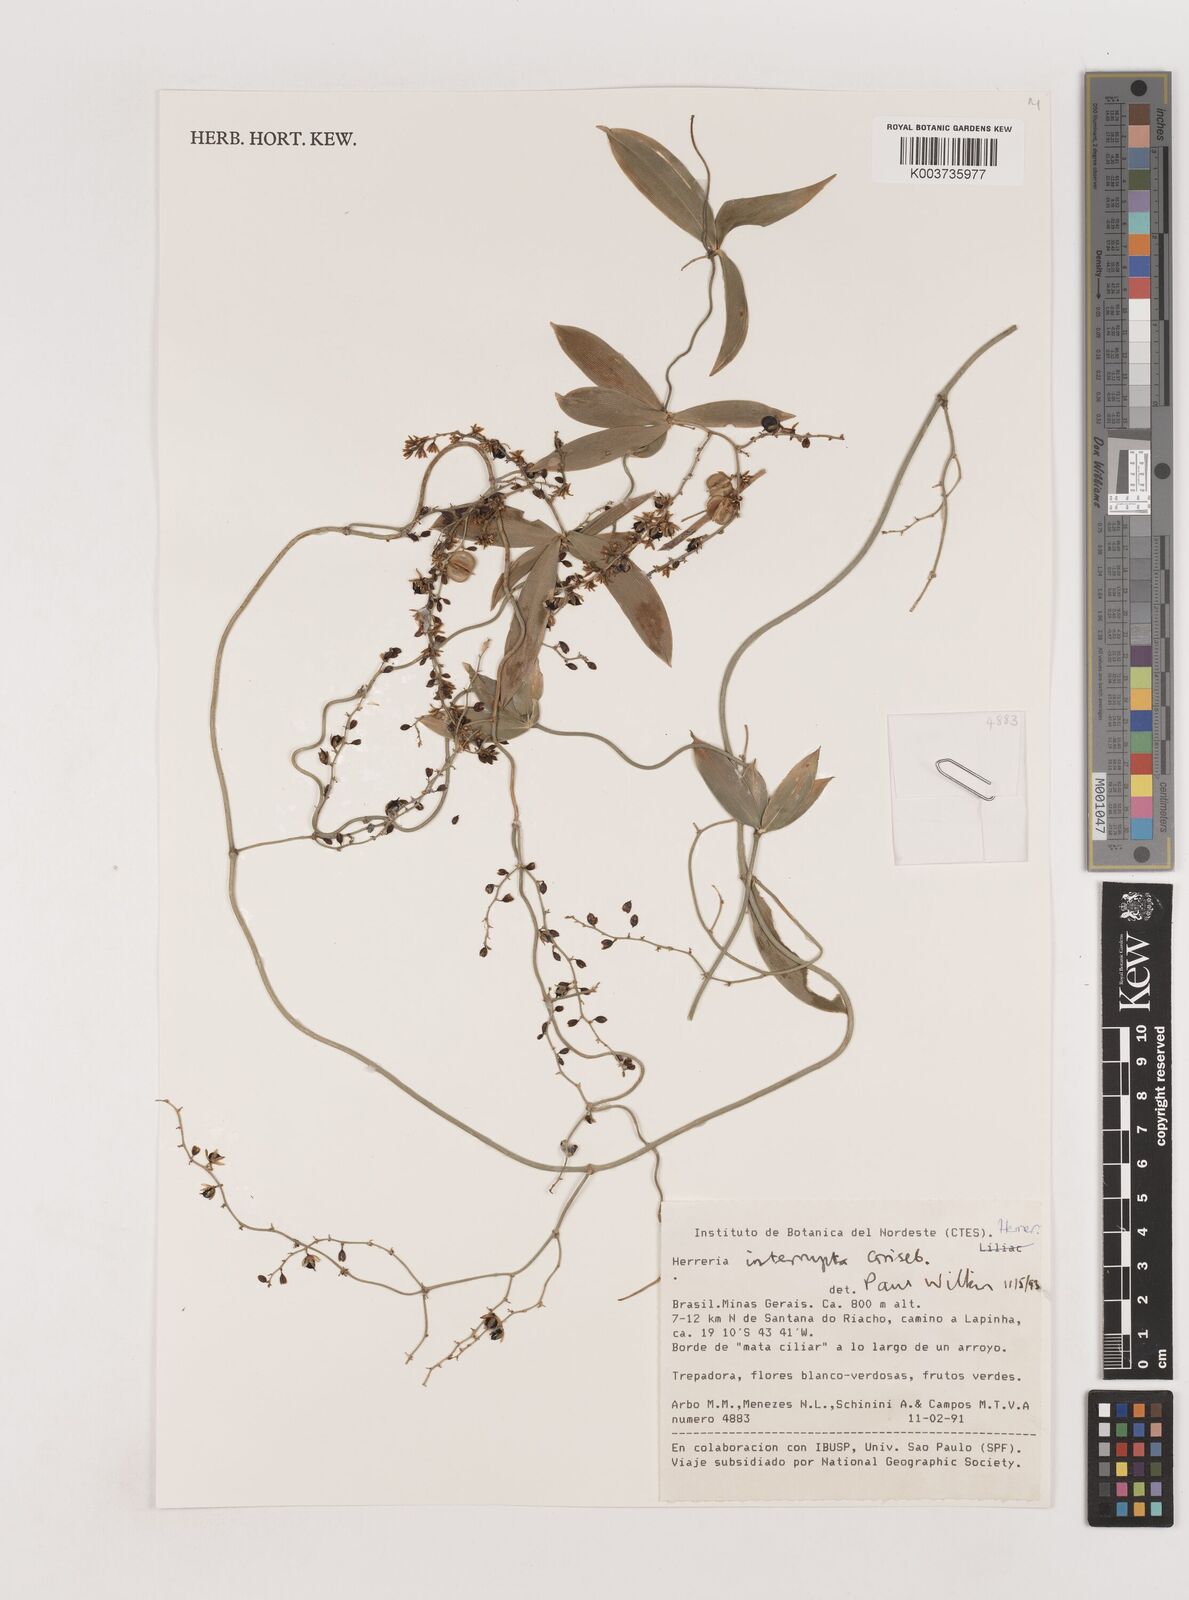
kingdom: Plantae
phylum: Tracheophyta
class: Liliopsida
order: Asparagales
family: Asparagaceae
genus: Herreria
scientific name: Herreria salsaparilha
